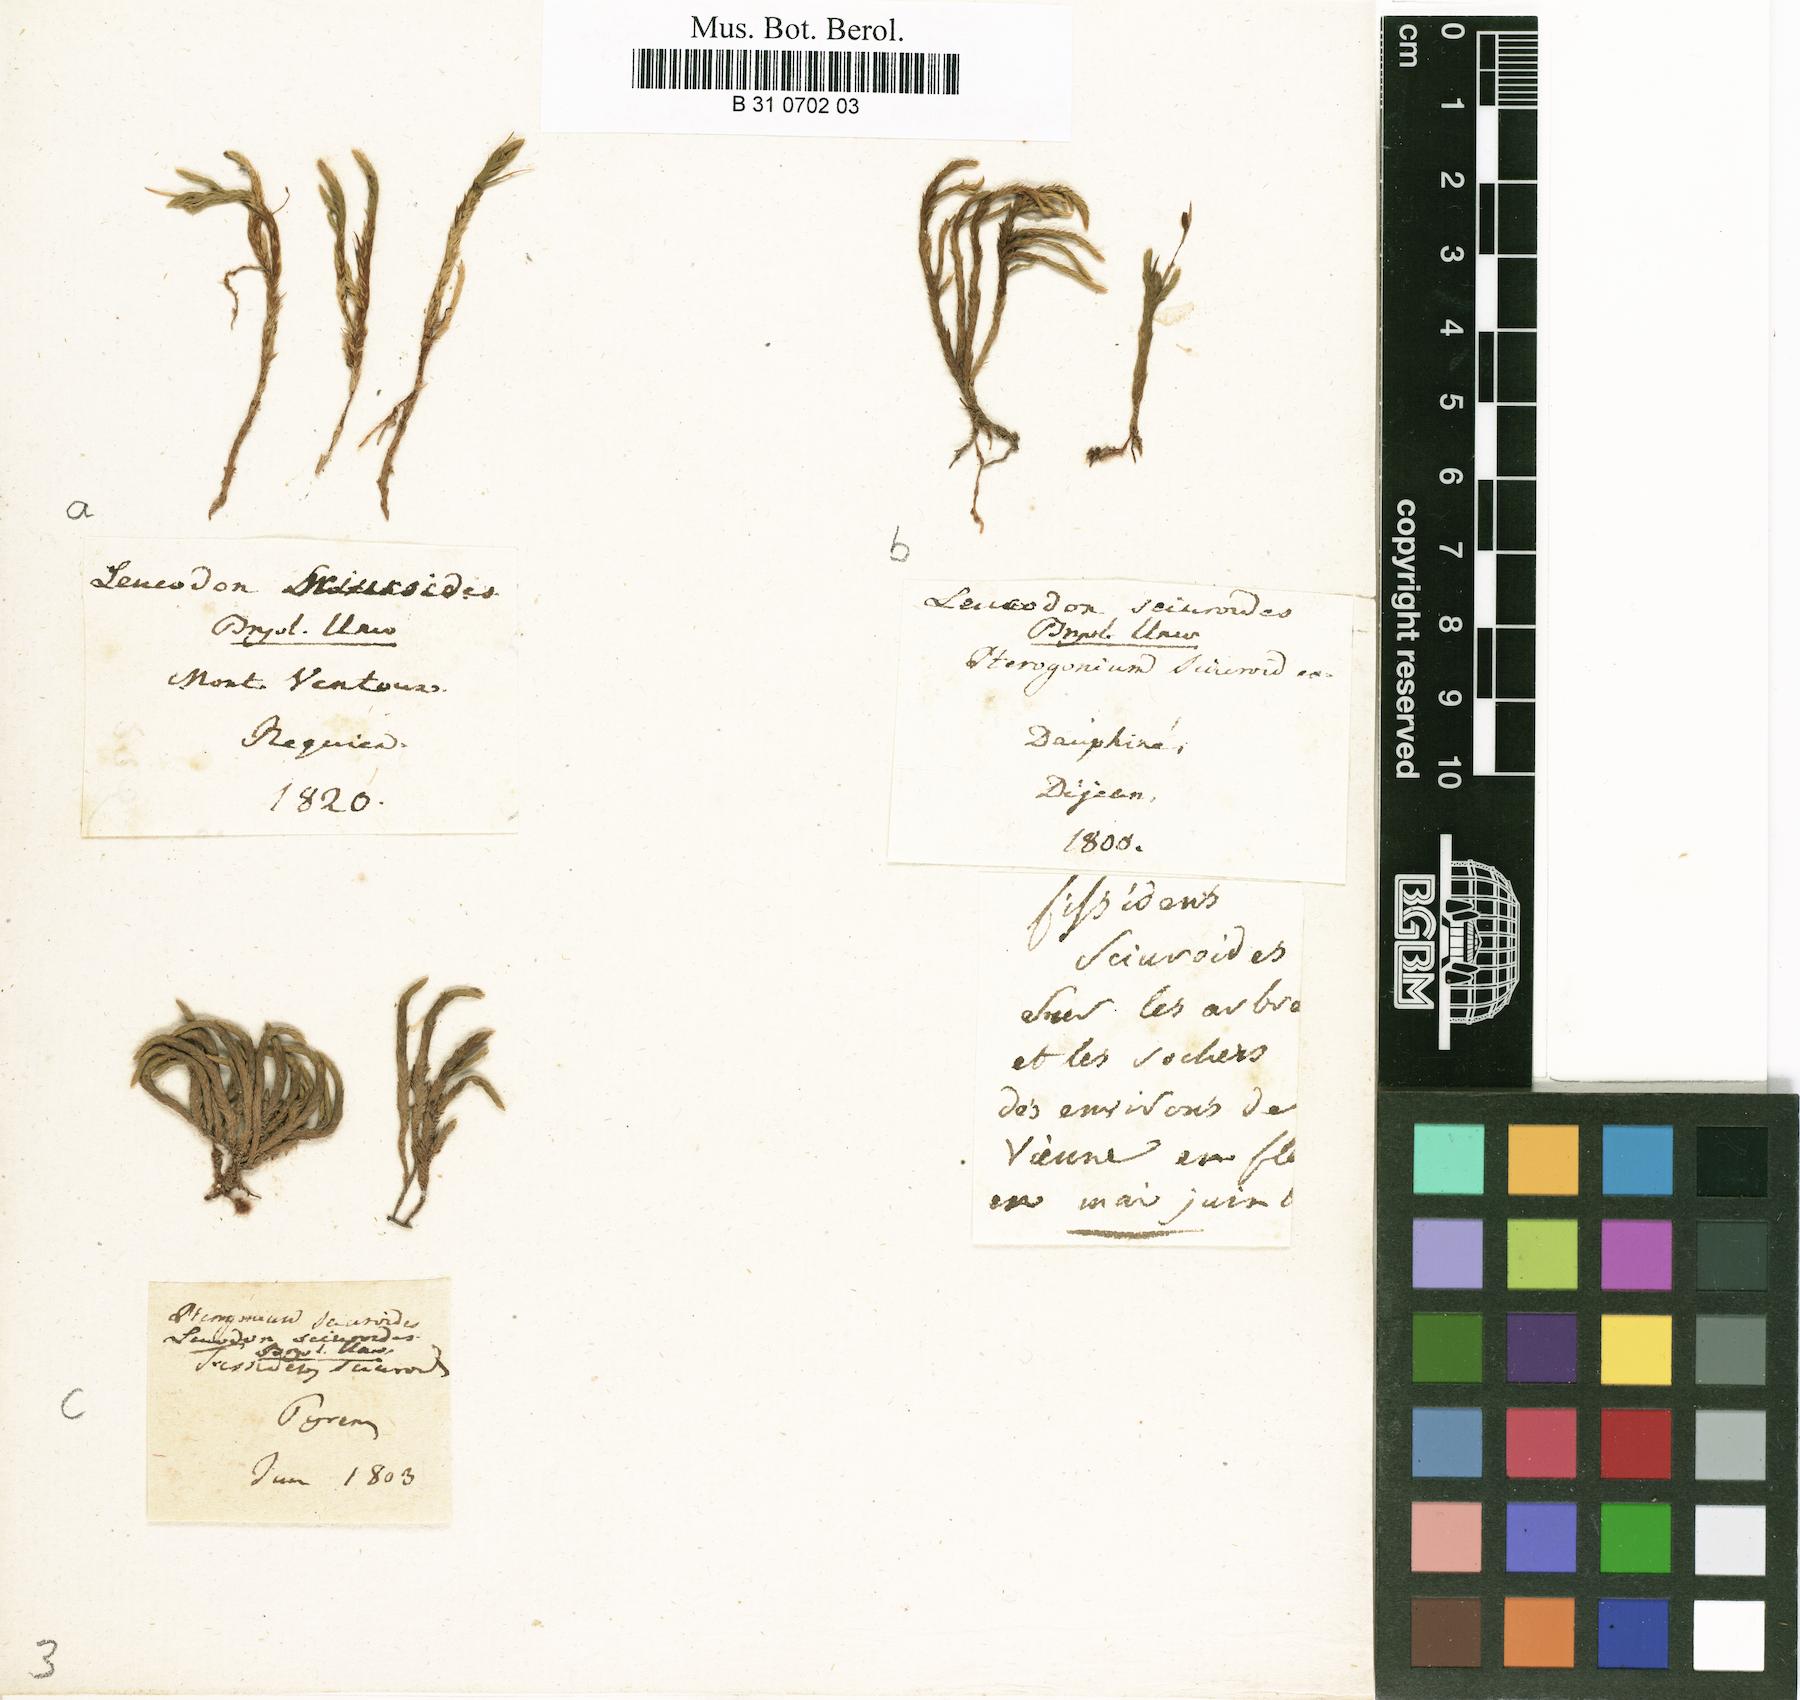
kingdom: Plantae
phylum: Bryophyta
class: Bryopsida
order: Hypnales
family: Leucodontaceae
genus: Leucodon
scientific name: Leucodon sciuroides
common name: Squirrel-tail moss
